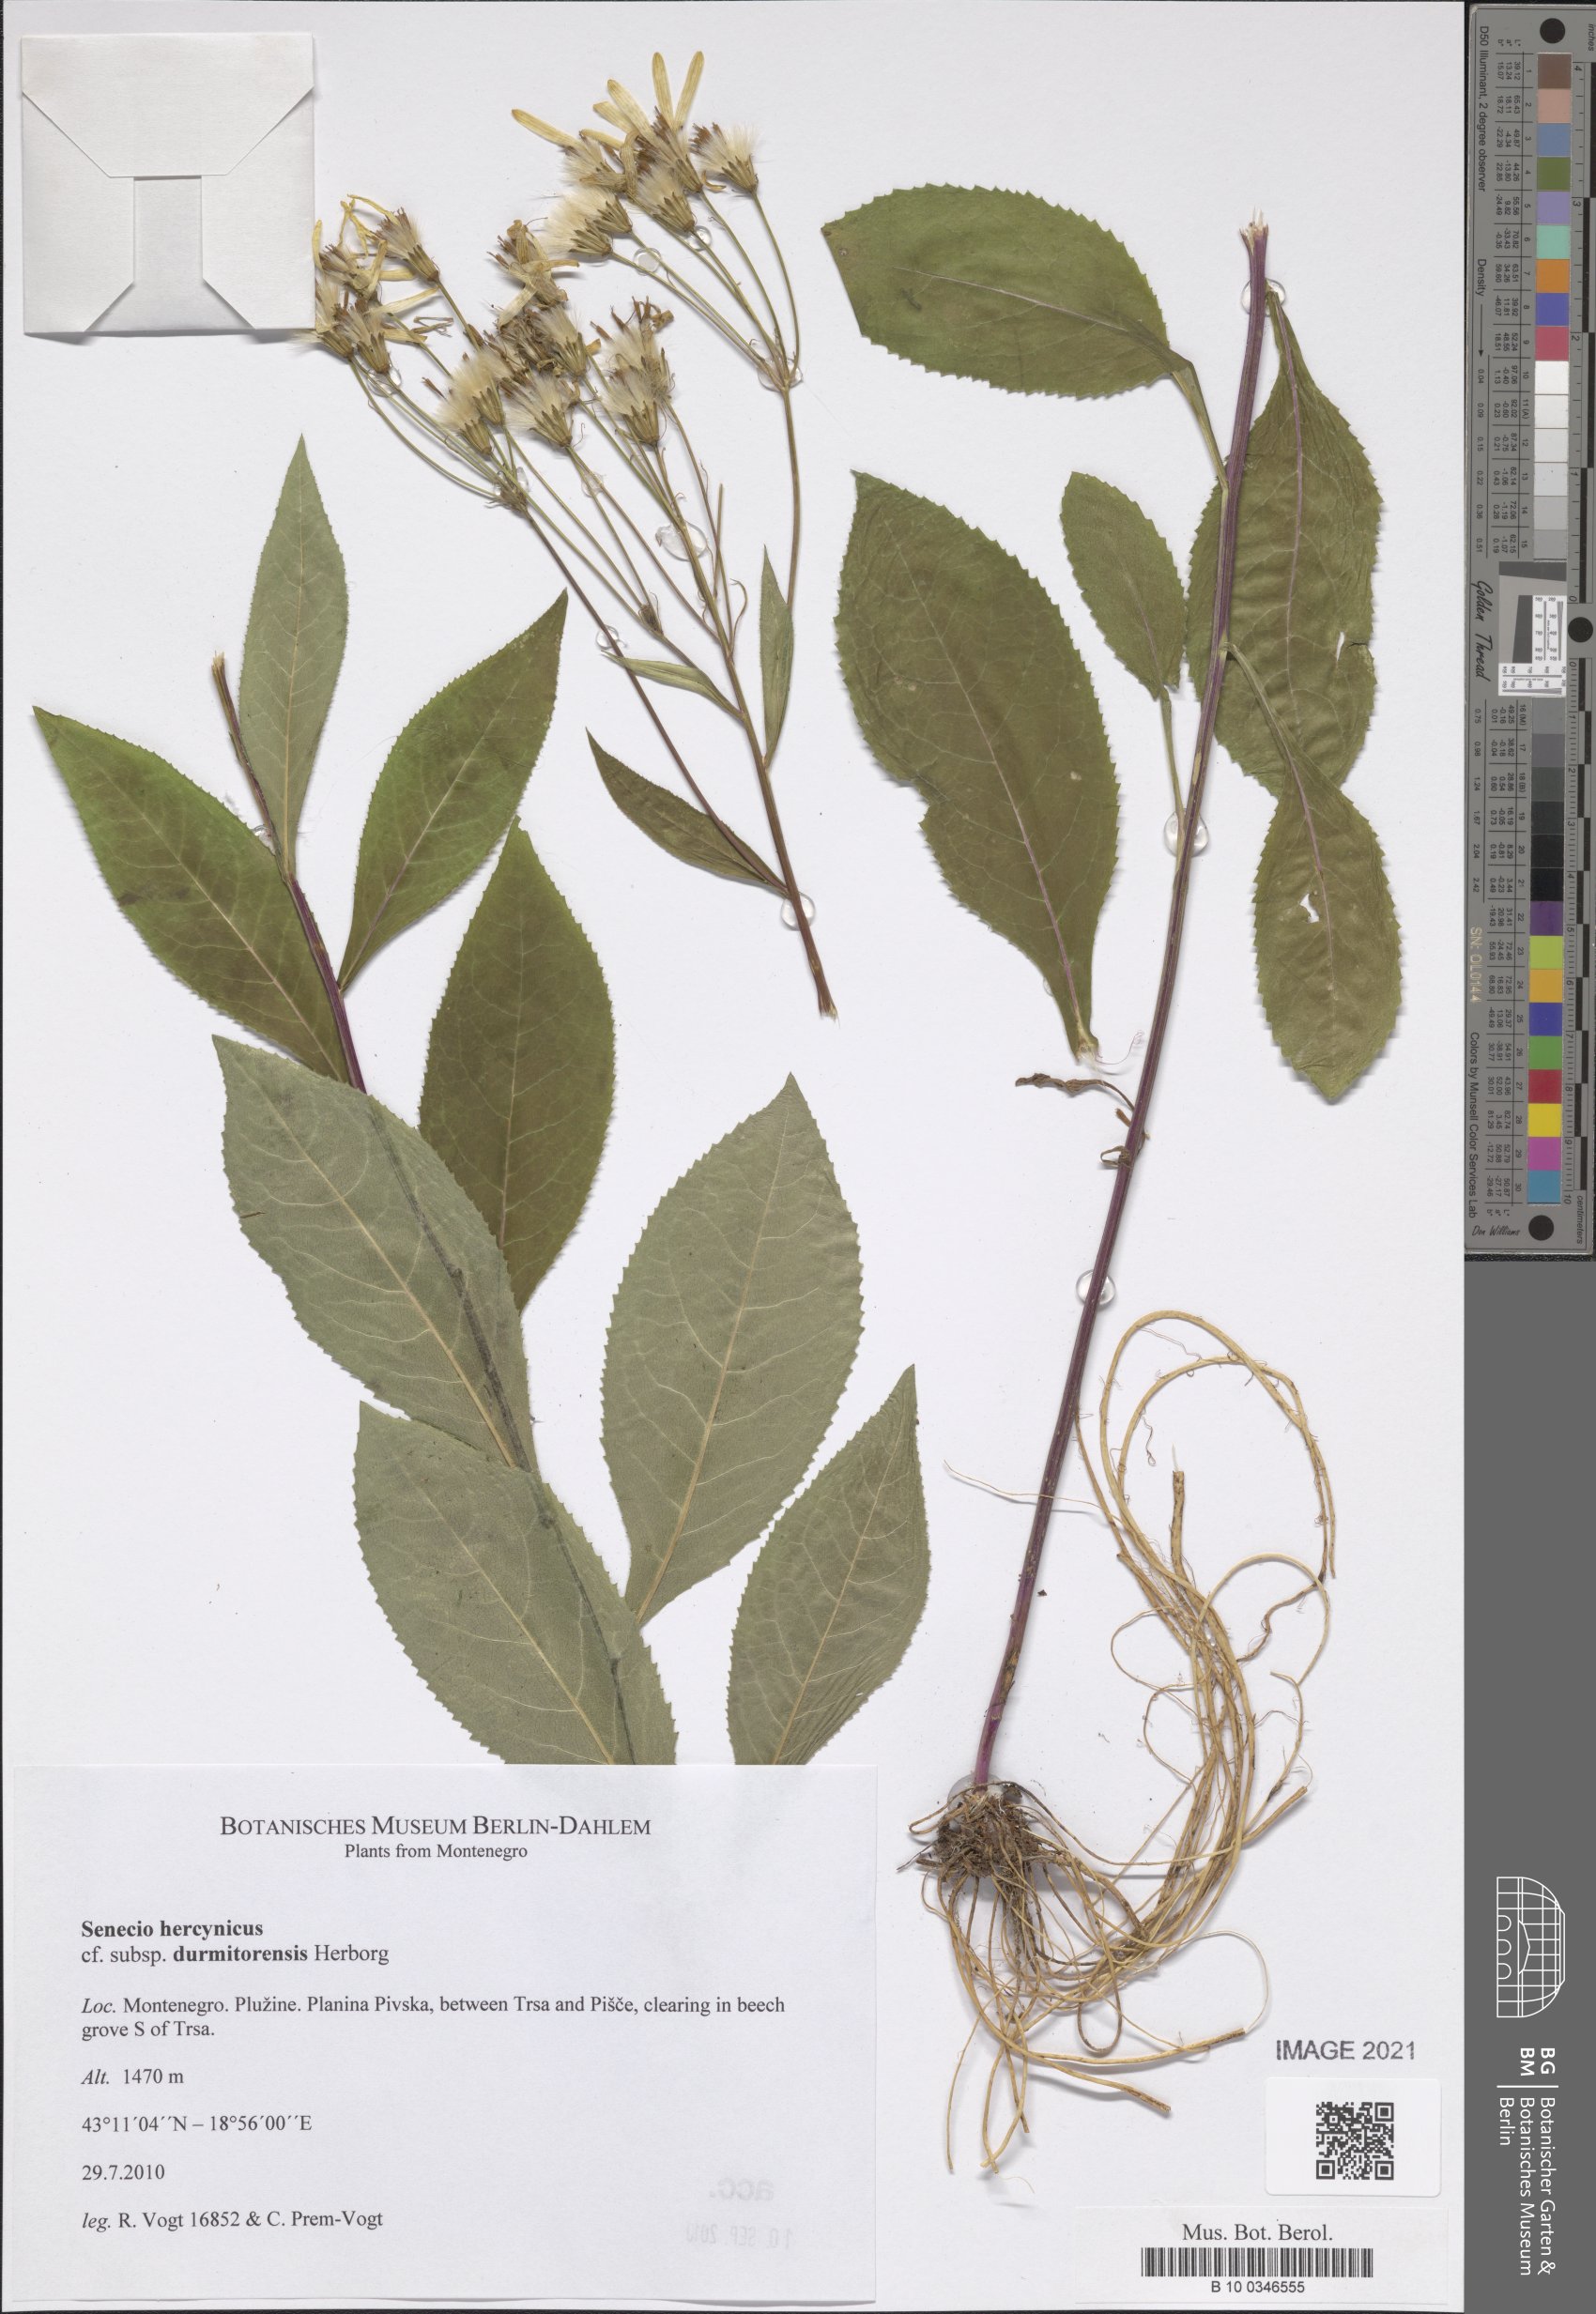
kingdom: Plantae
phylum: Tracheophyta
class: Magnoliopsida
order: Asterales
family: Asteraceae
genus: Senecio
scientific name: Senecio hercynicus
